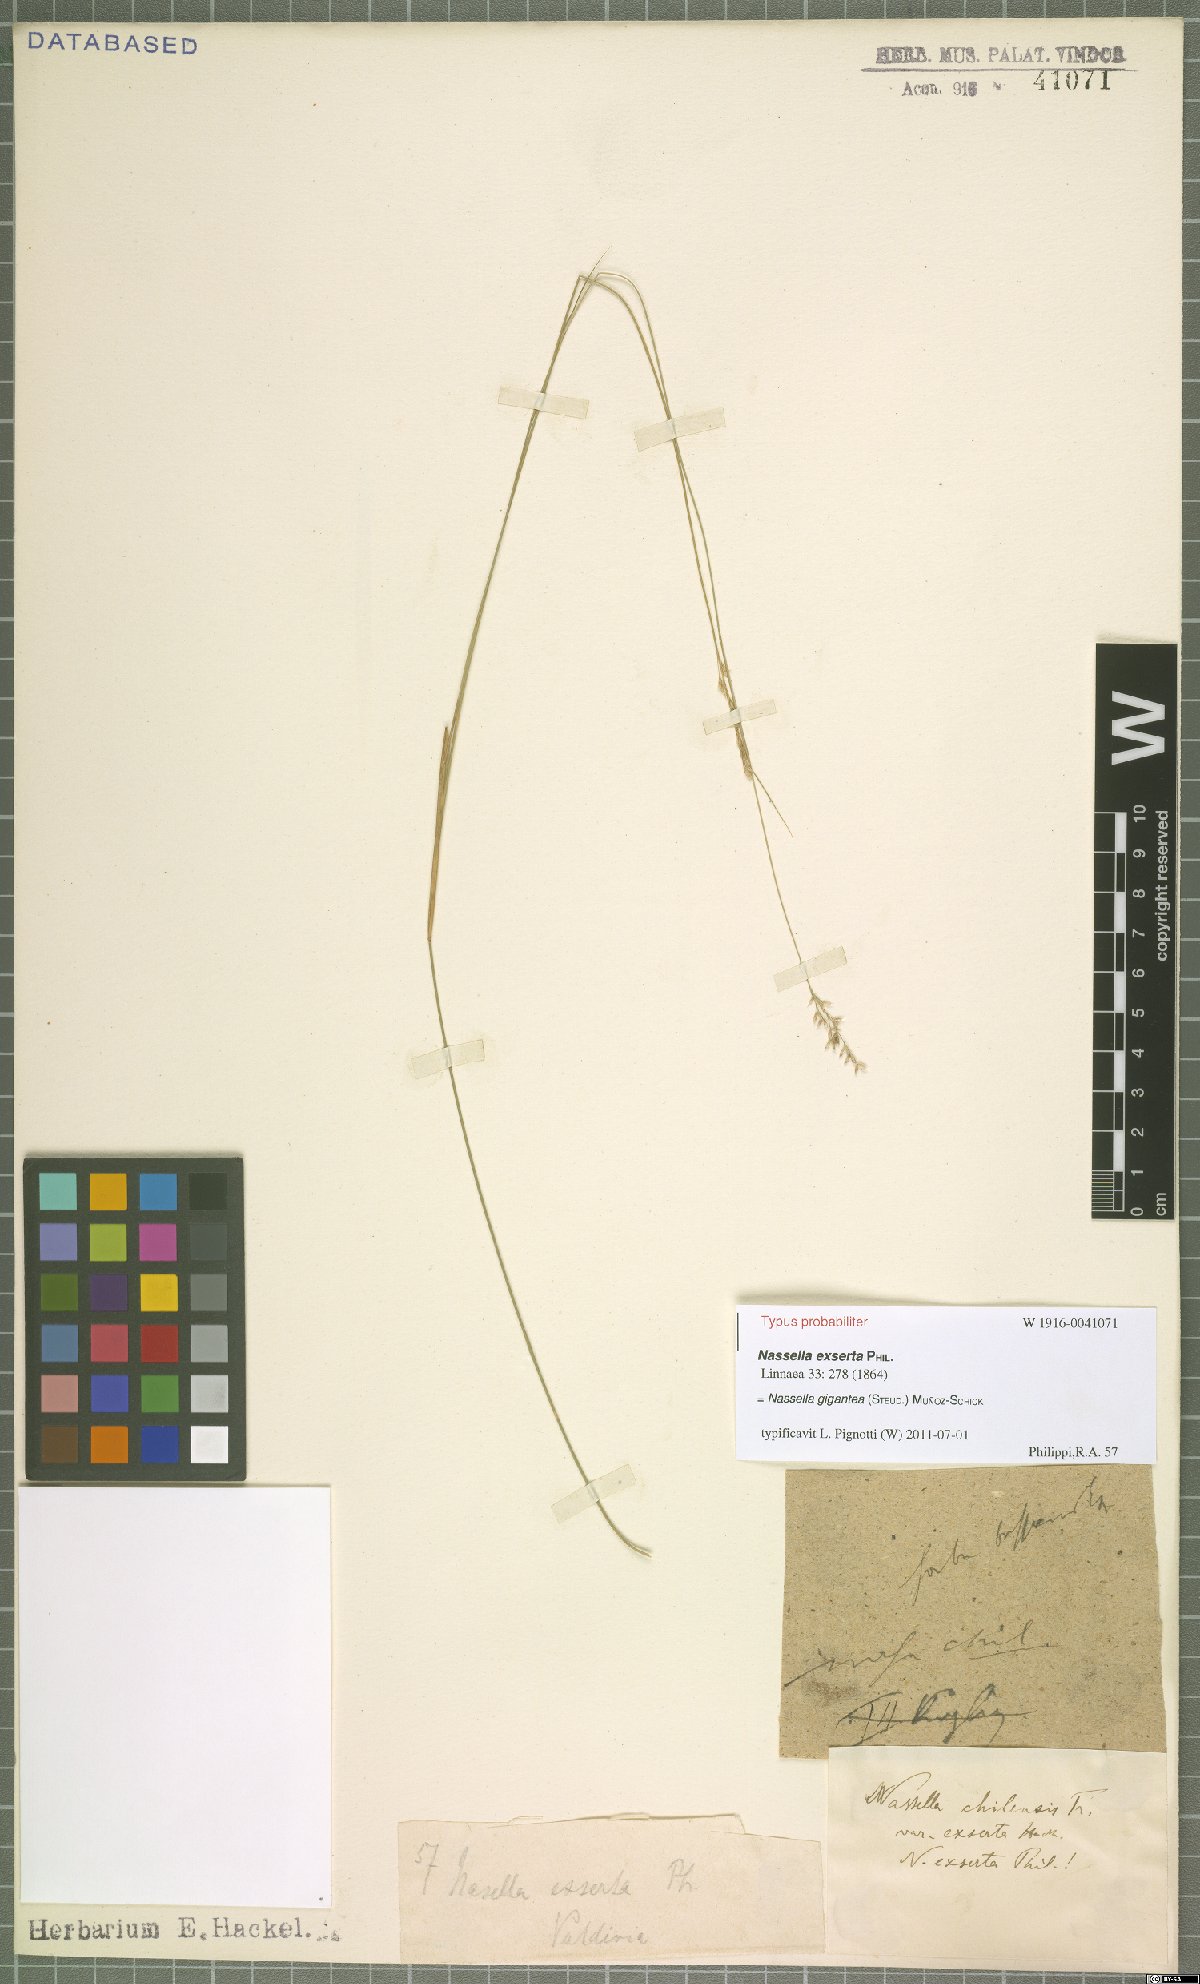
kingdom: Plantae
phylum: Tracheophyta
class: Liliopsida
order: Poales
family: Poaceae
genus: Nassella
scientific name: Nassella gigantea
